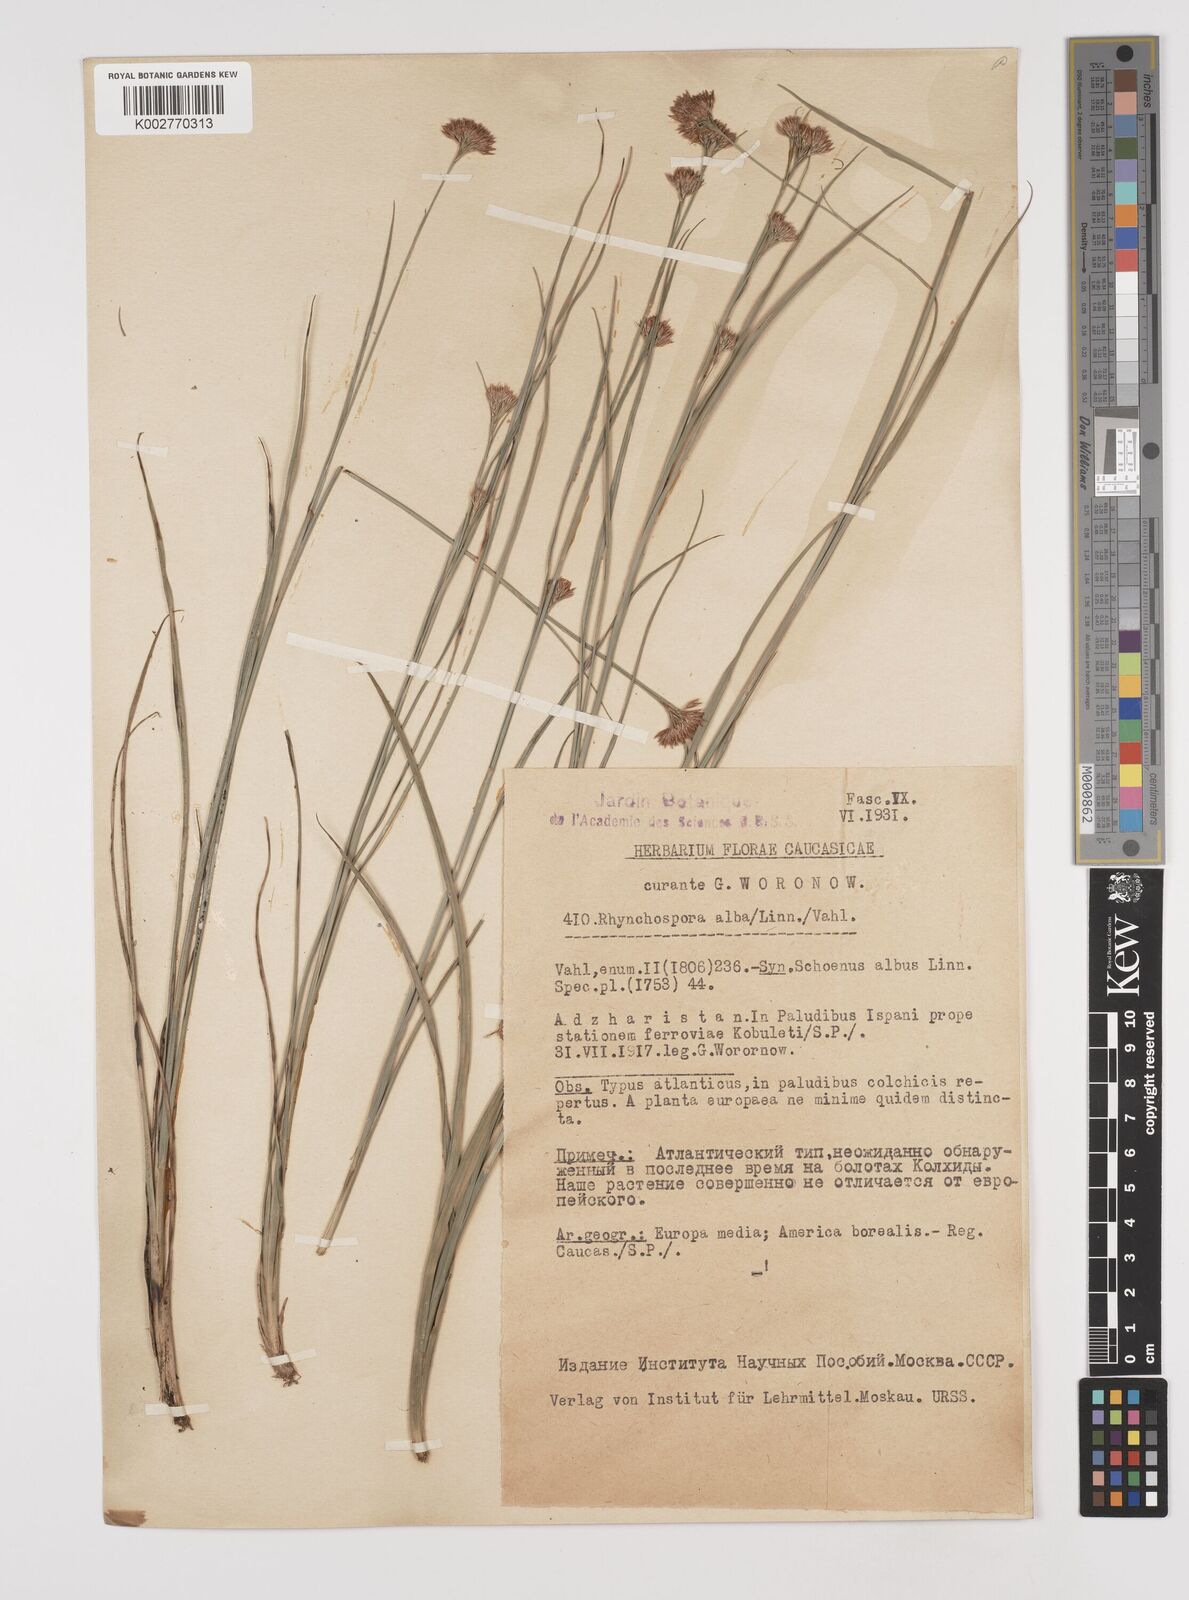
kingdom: Plantae
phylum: Tracheophyta
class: Liliopsida
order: Poales
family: Cyperaceae
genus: Rhynchospora
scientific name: Rhynchospora alba
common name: White beak-sedge
